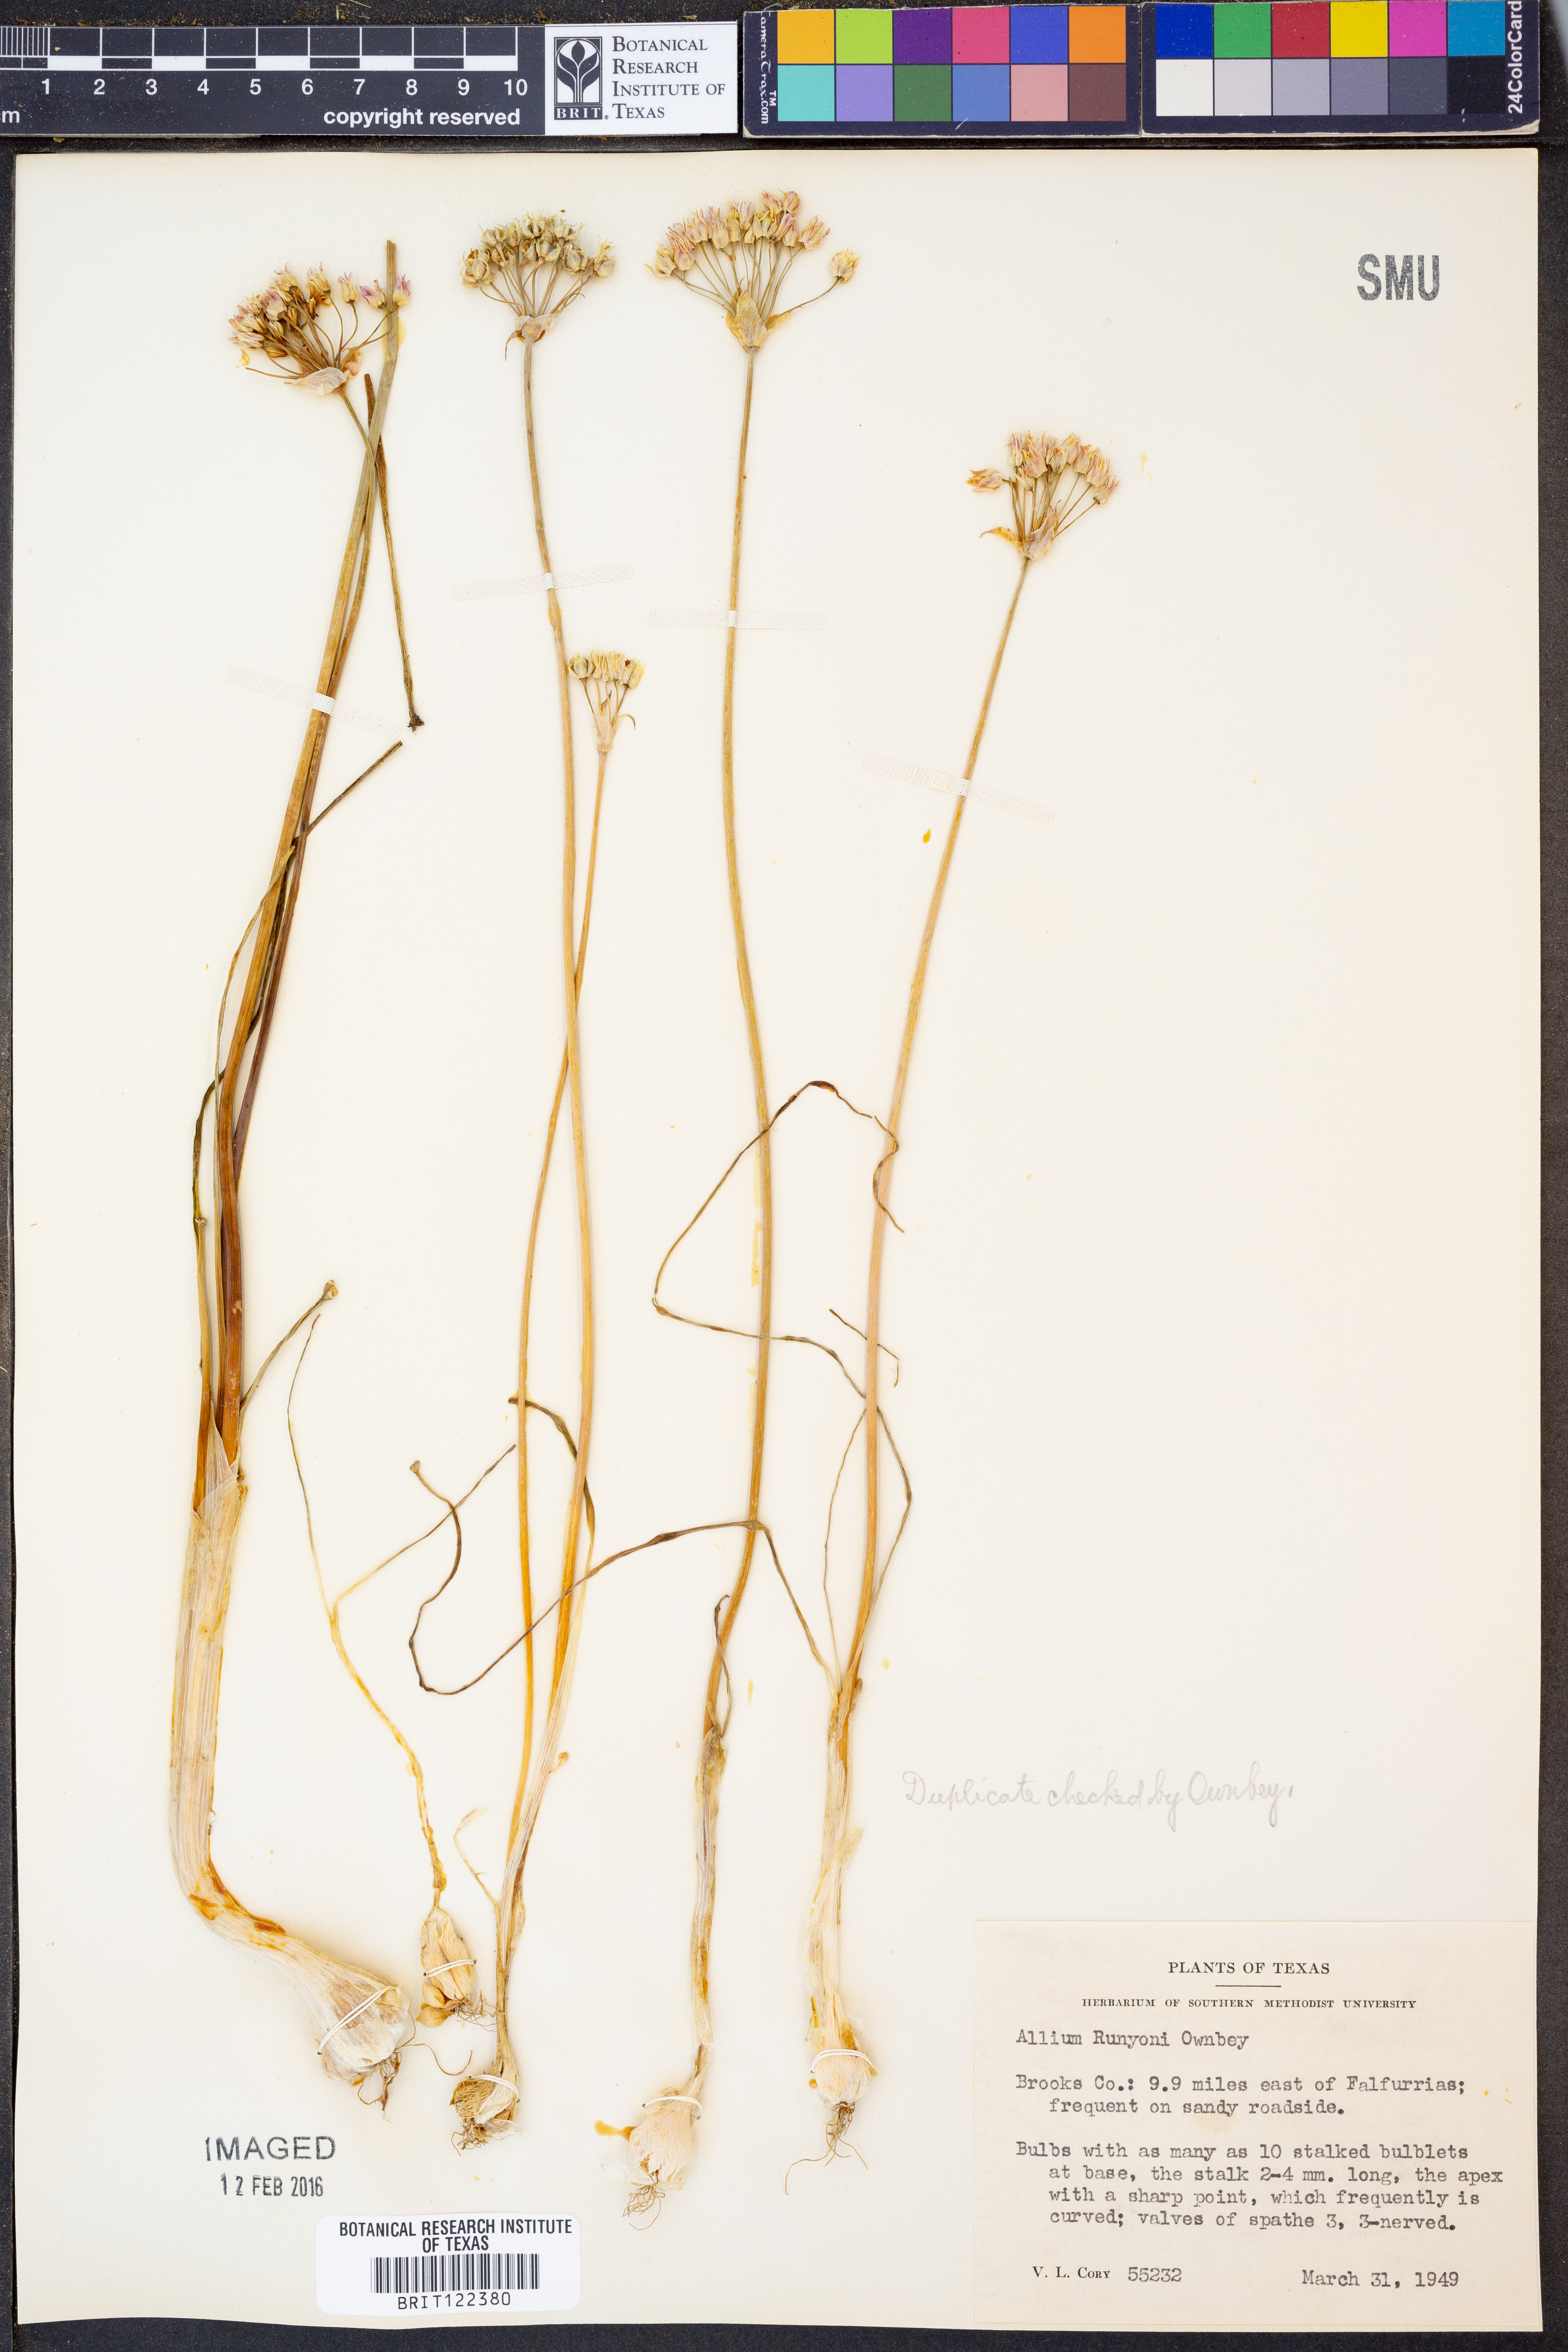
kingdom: Plantae
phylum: Tracheophyta
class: Liliopsida
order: Asparagales
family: Amaryllidaceae
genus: Allium
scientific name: Allium runyonii
